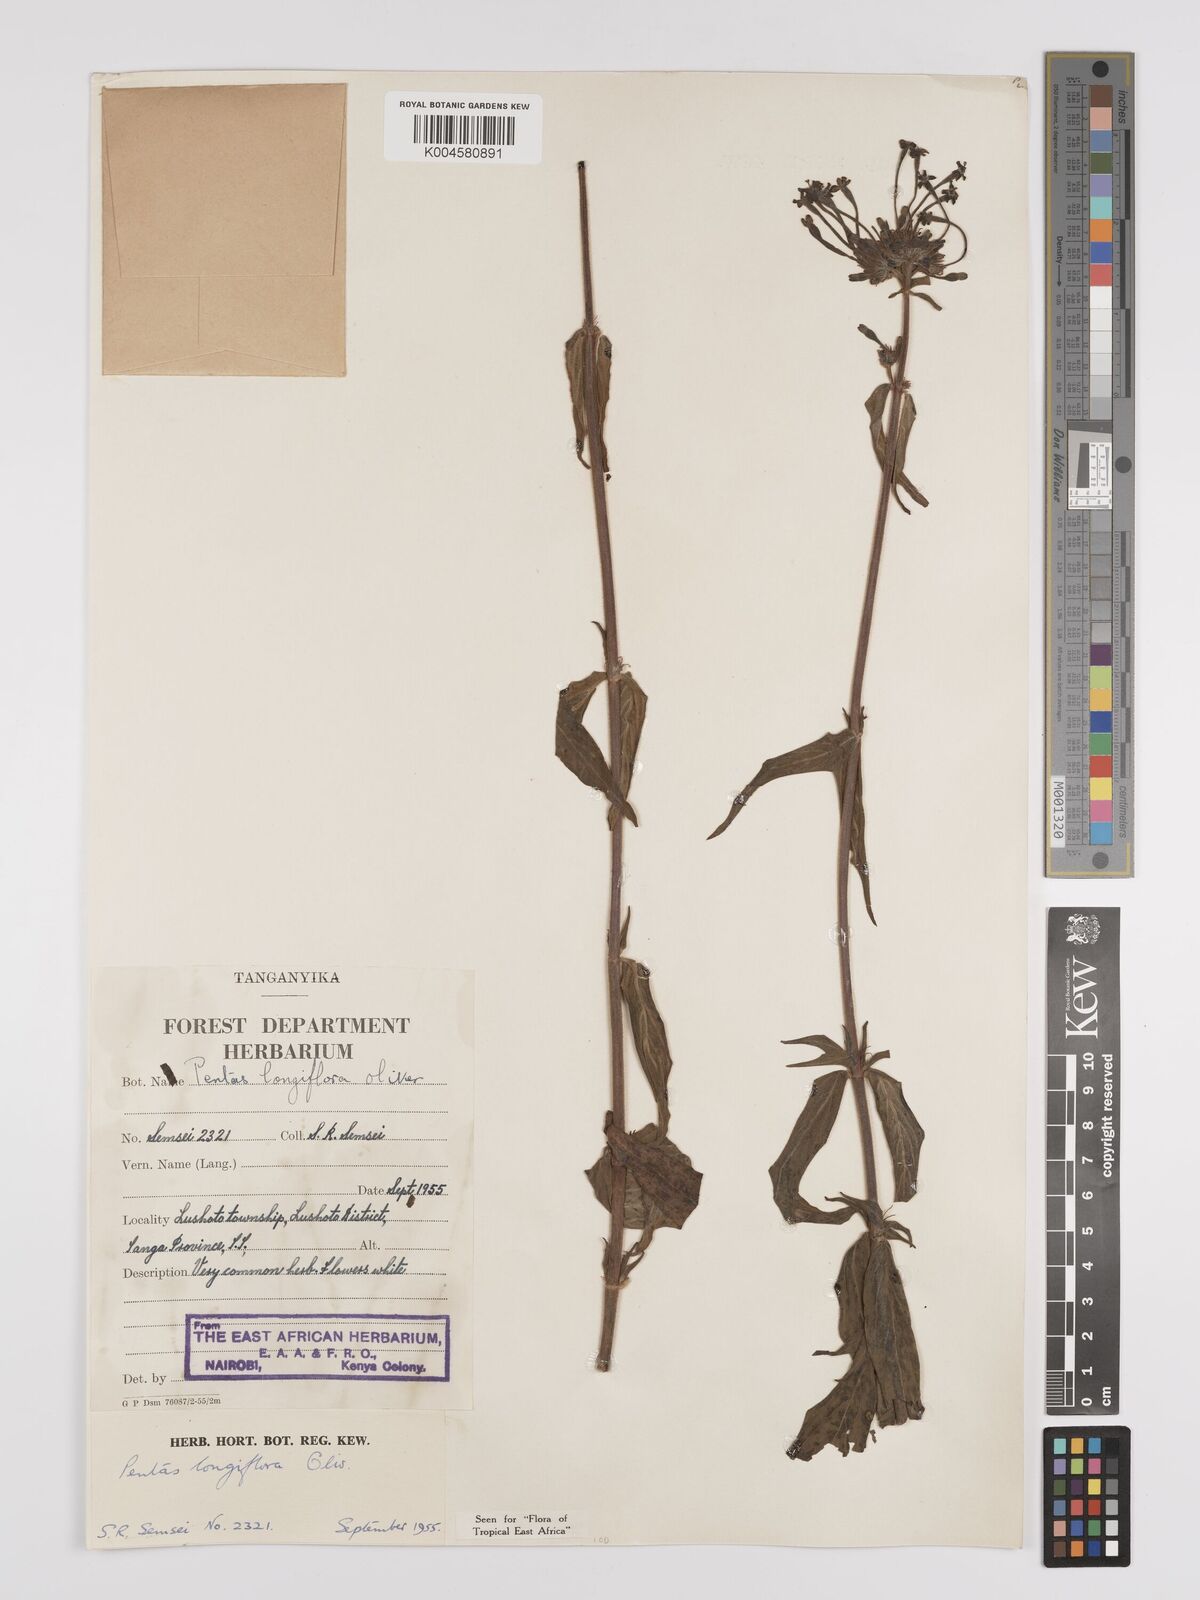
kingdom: Plantae
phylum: Tracheophyta
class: Magnoliopsida
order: Gentianales
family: Rubiaceae
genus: Dolichopentas
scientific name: Dolichopentas longiflora
